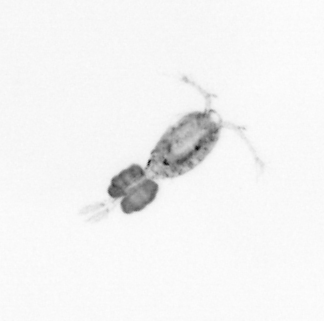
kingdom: Animalia
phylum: Arthropoda
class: Copepoda
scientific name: Copepoda
